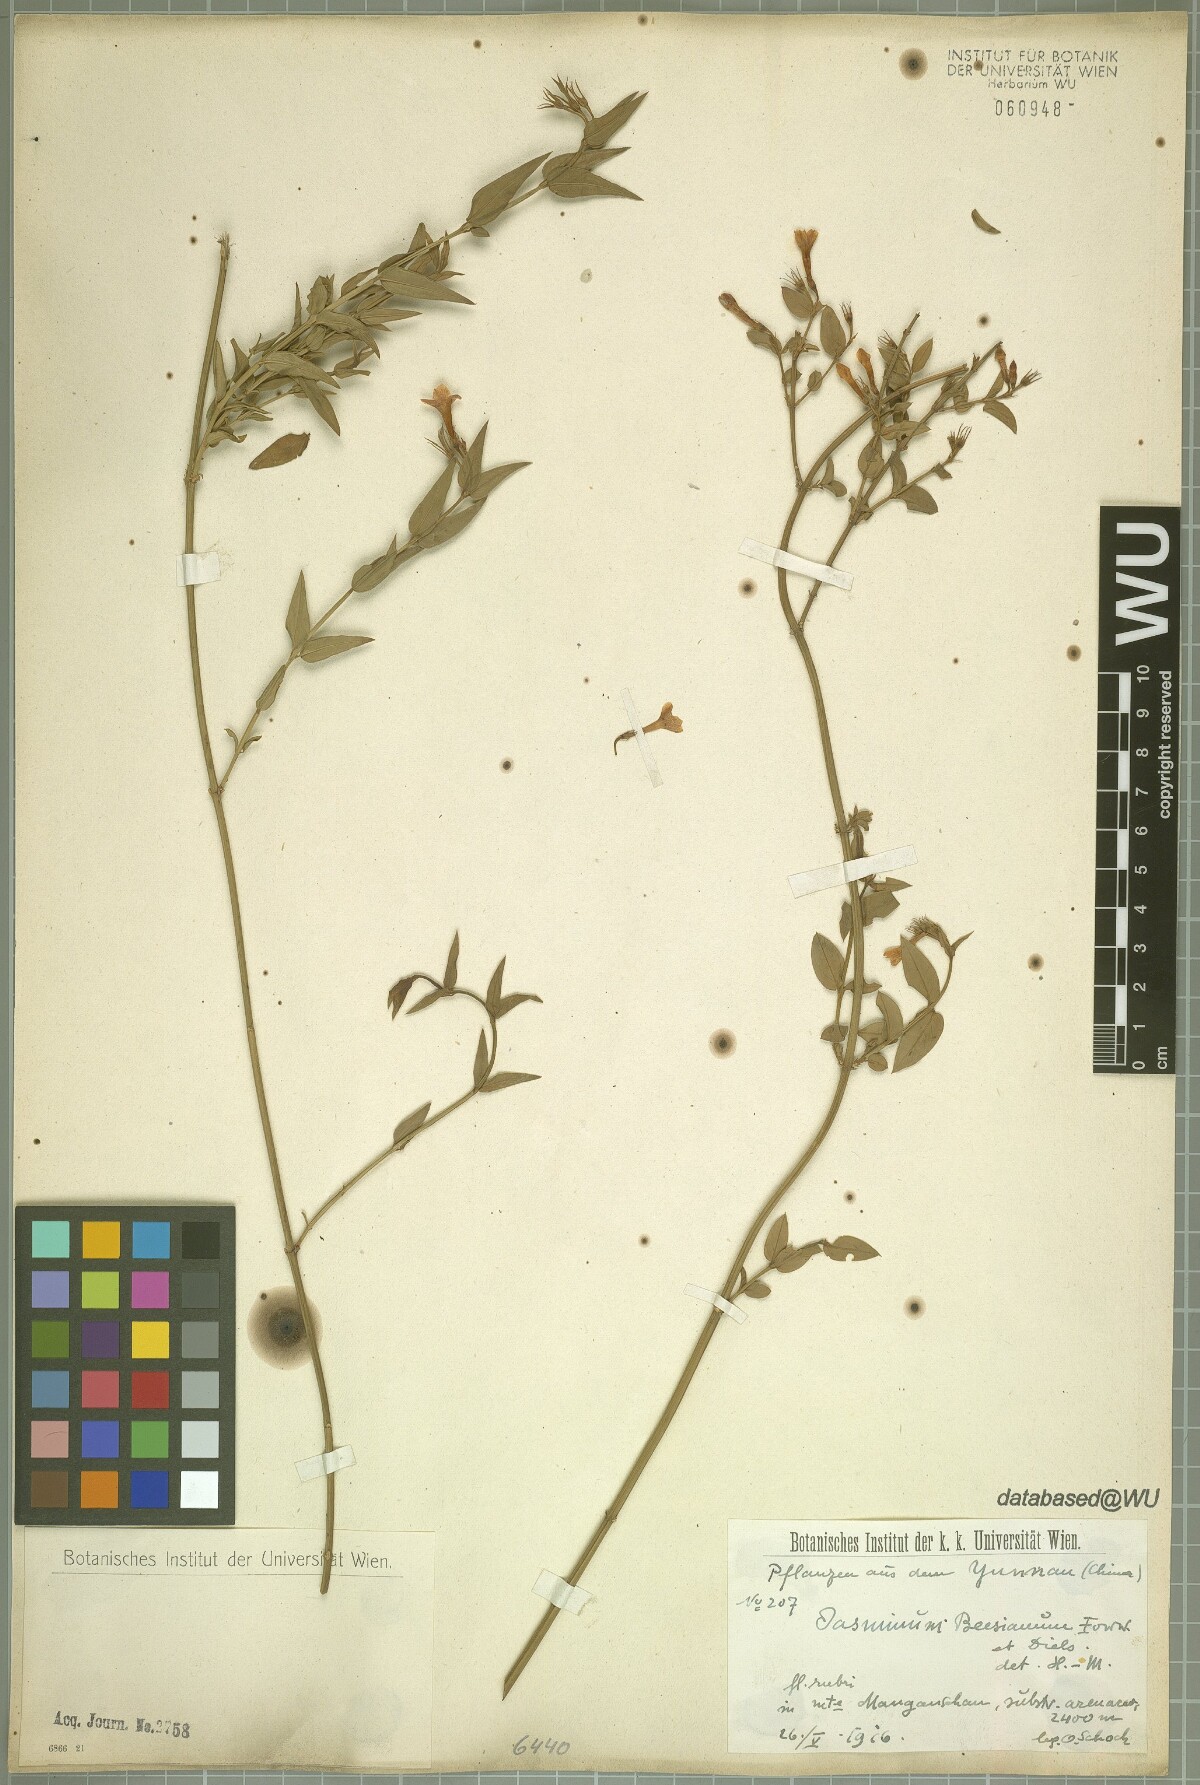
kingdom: Plantae
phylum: Tracheophyta
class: Magnoliopsida
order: Lamiales
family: Oleaceae
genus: Jasminum
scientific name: Jasminum beesianum
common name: Red jasmine
